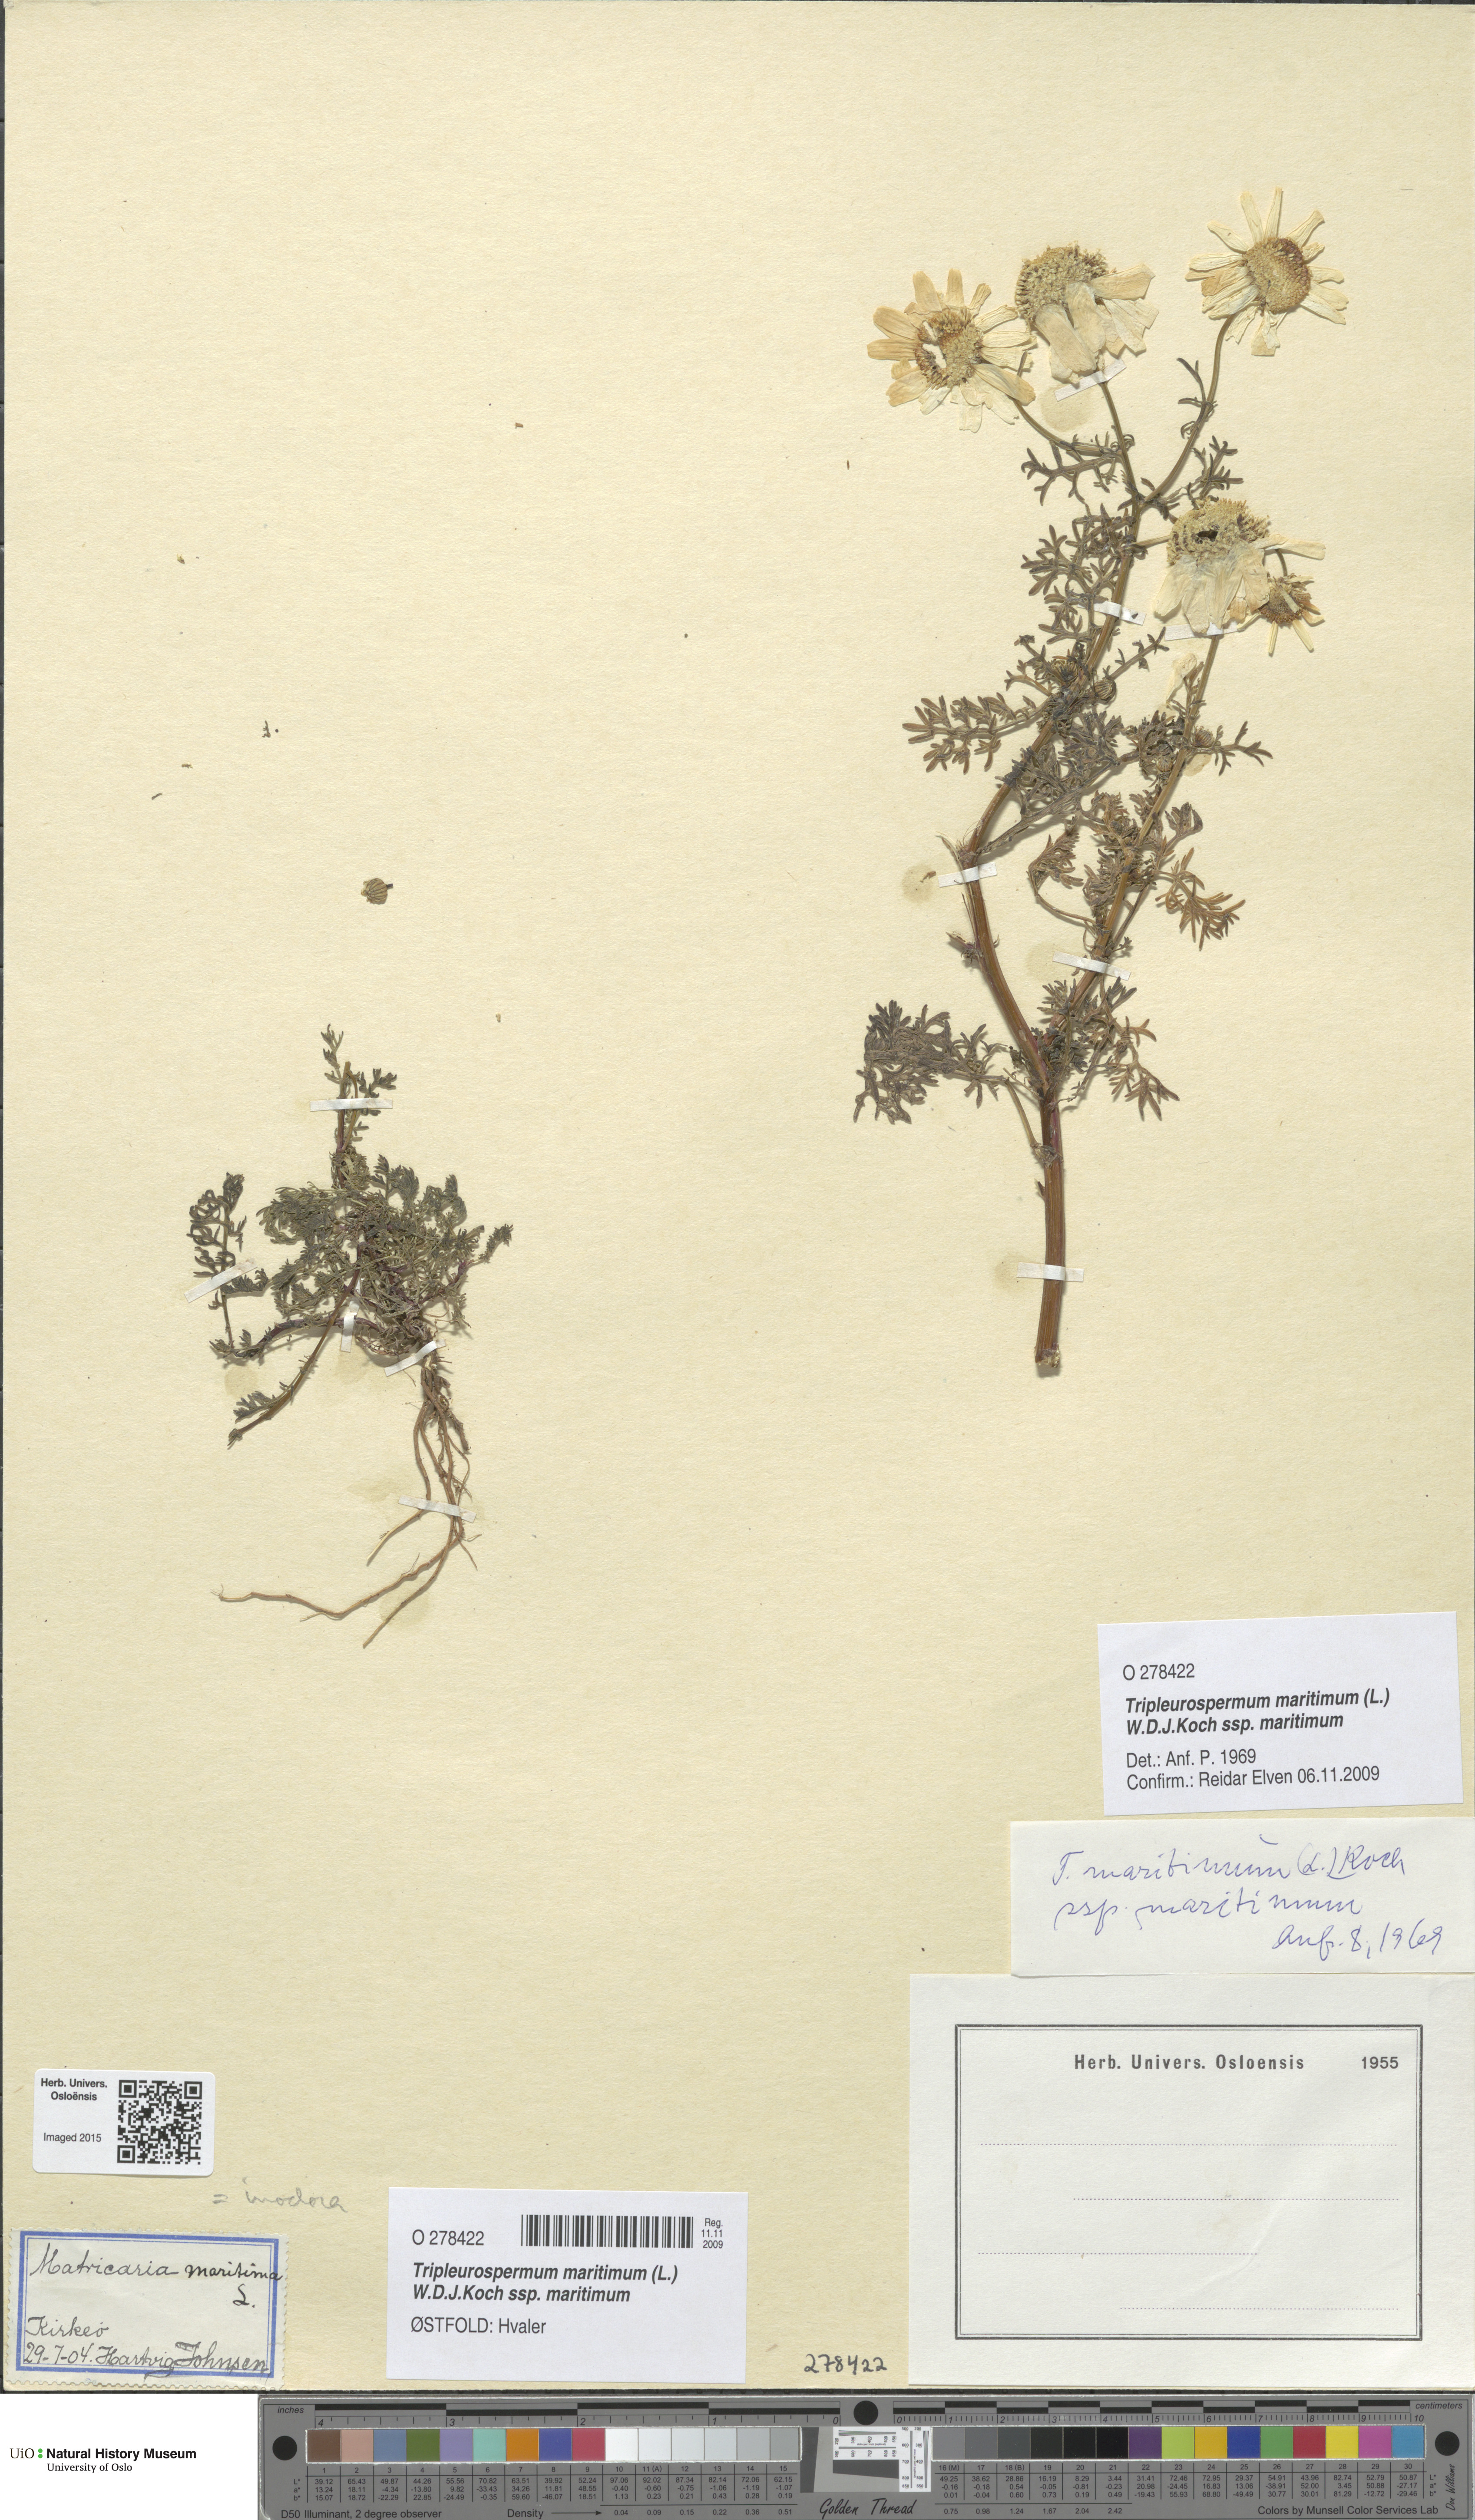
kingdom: Plantae
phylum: Tracheophyta
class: Magnoliopsida
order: Asterales
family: Asteraceae
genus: Tripleurospermum
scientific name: Tripleurospermum maritimum
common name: Sea mayweed
